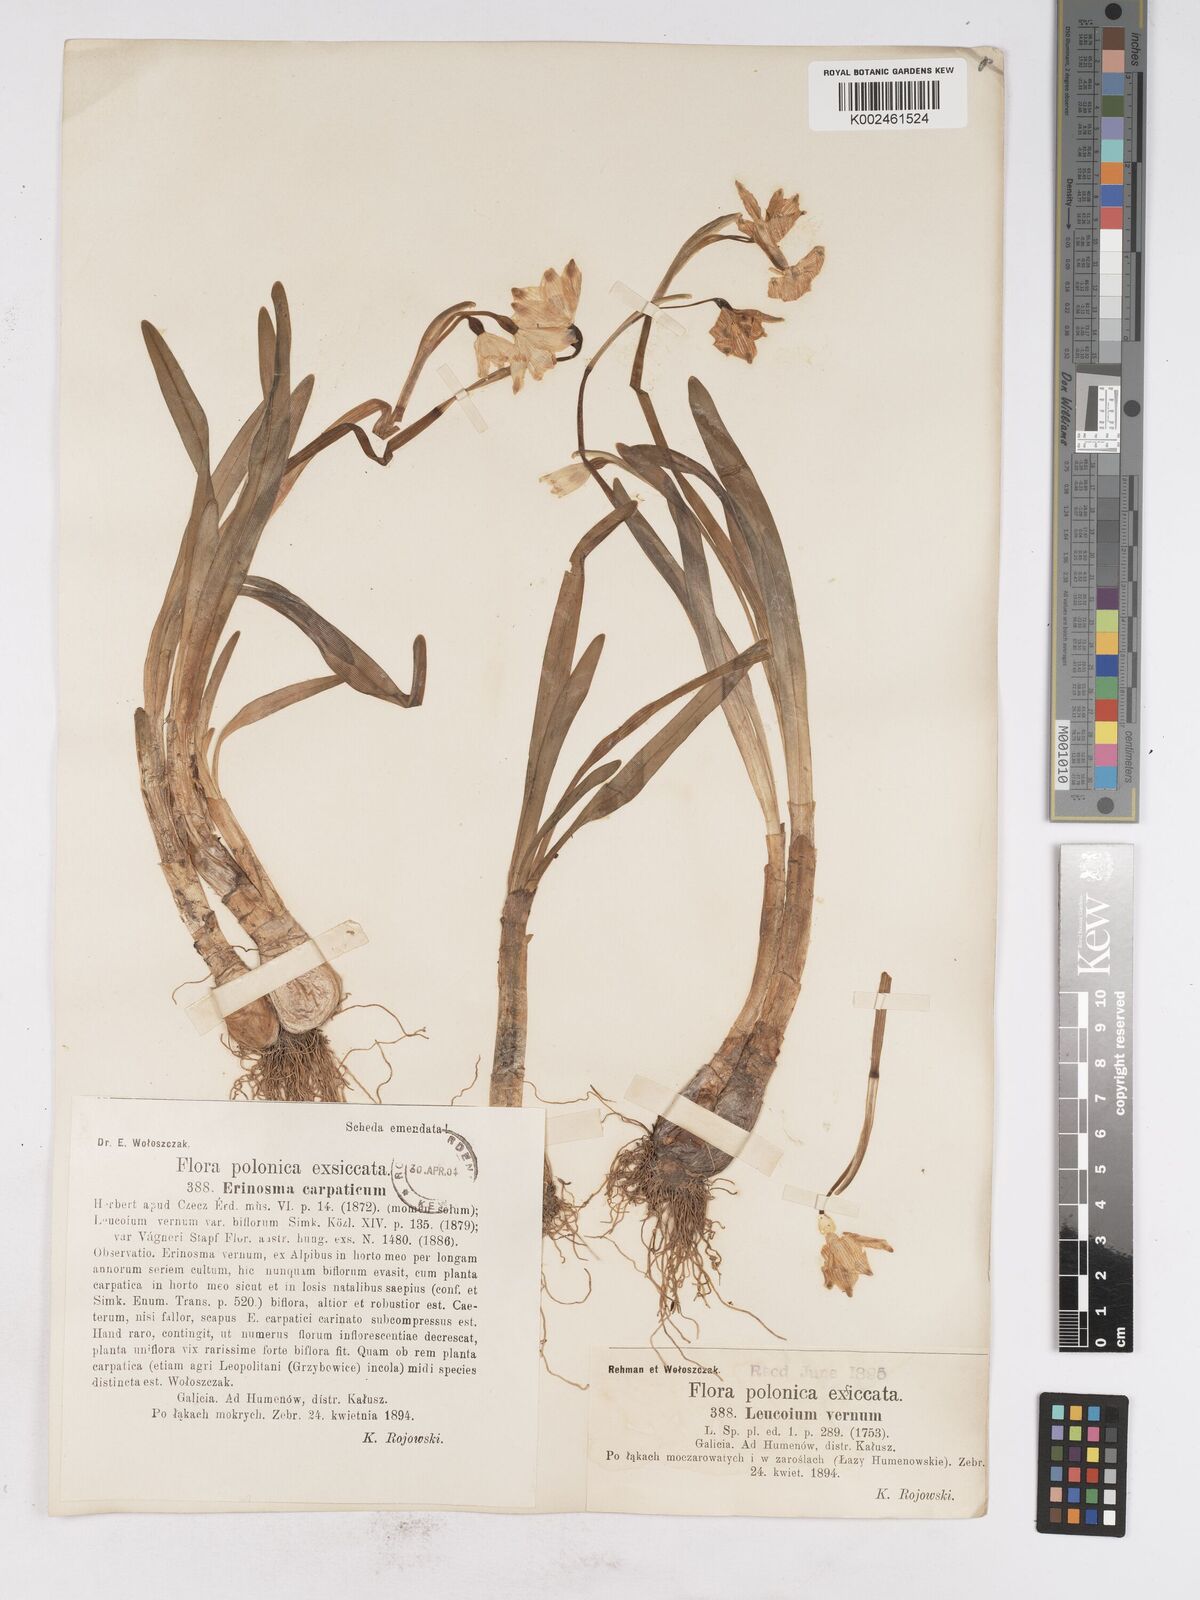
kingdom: Plantae
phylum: Tracheophyta
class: Liliopsida
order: Asparagales
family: Amaryllidaceae
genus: Leucojum
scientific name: Leucojum vernum
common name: Spring snowflake
